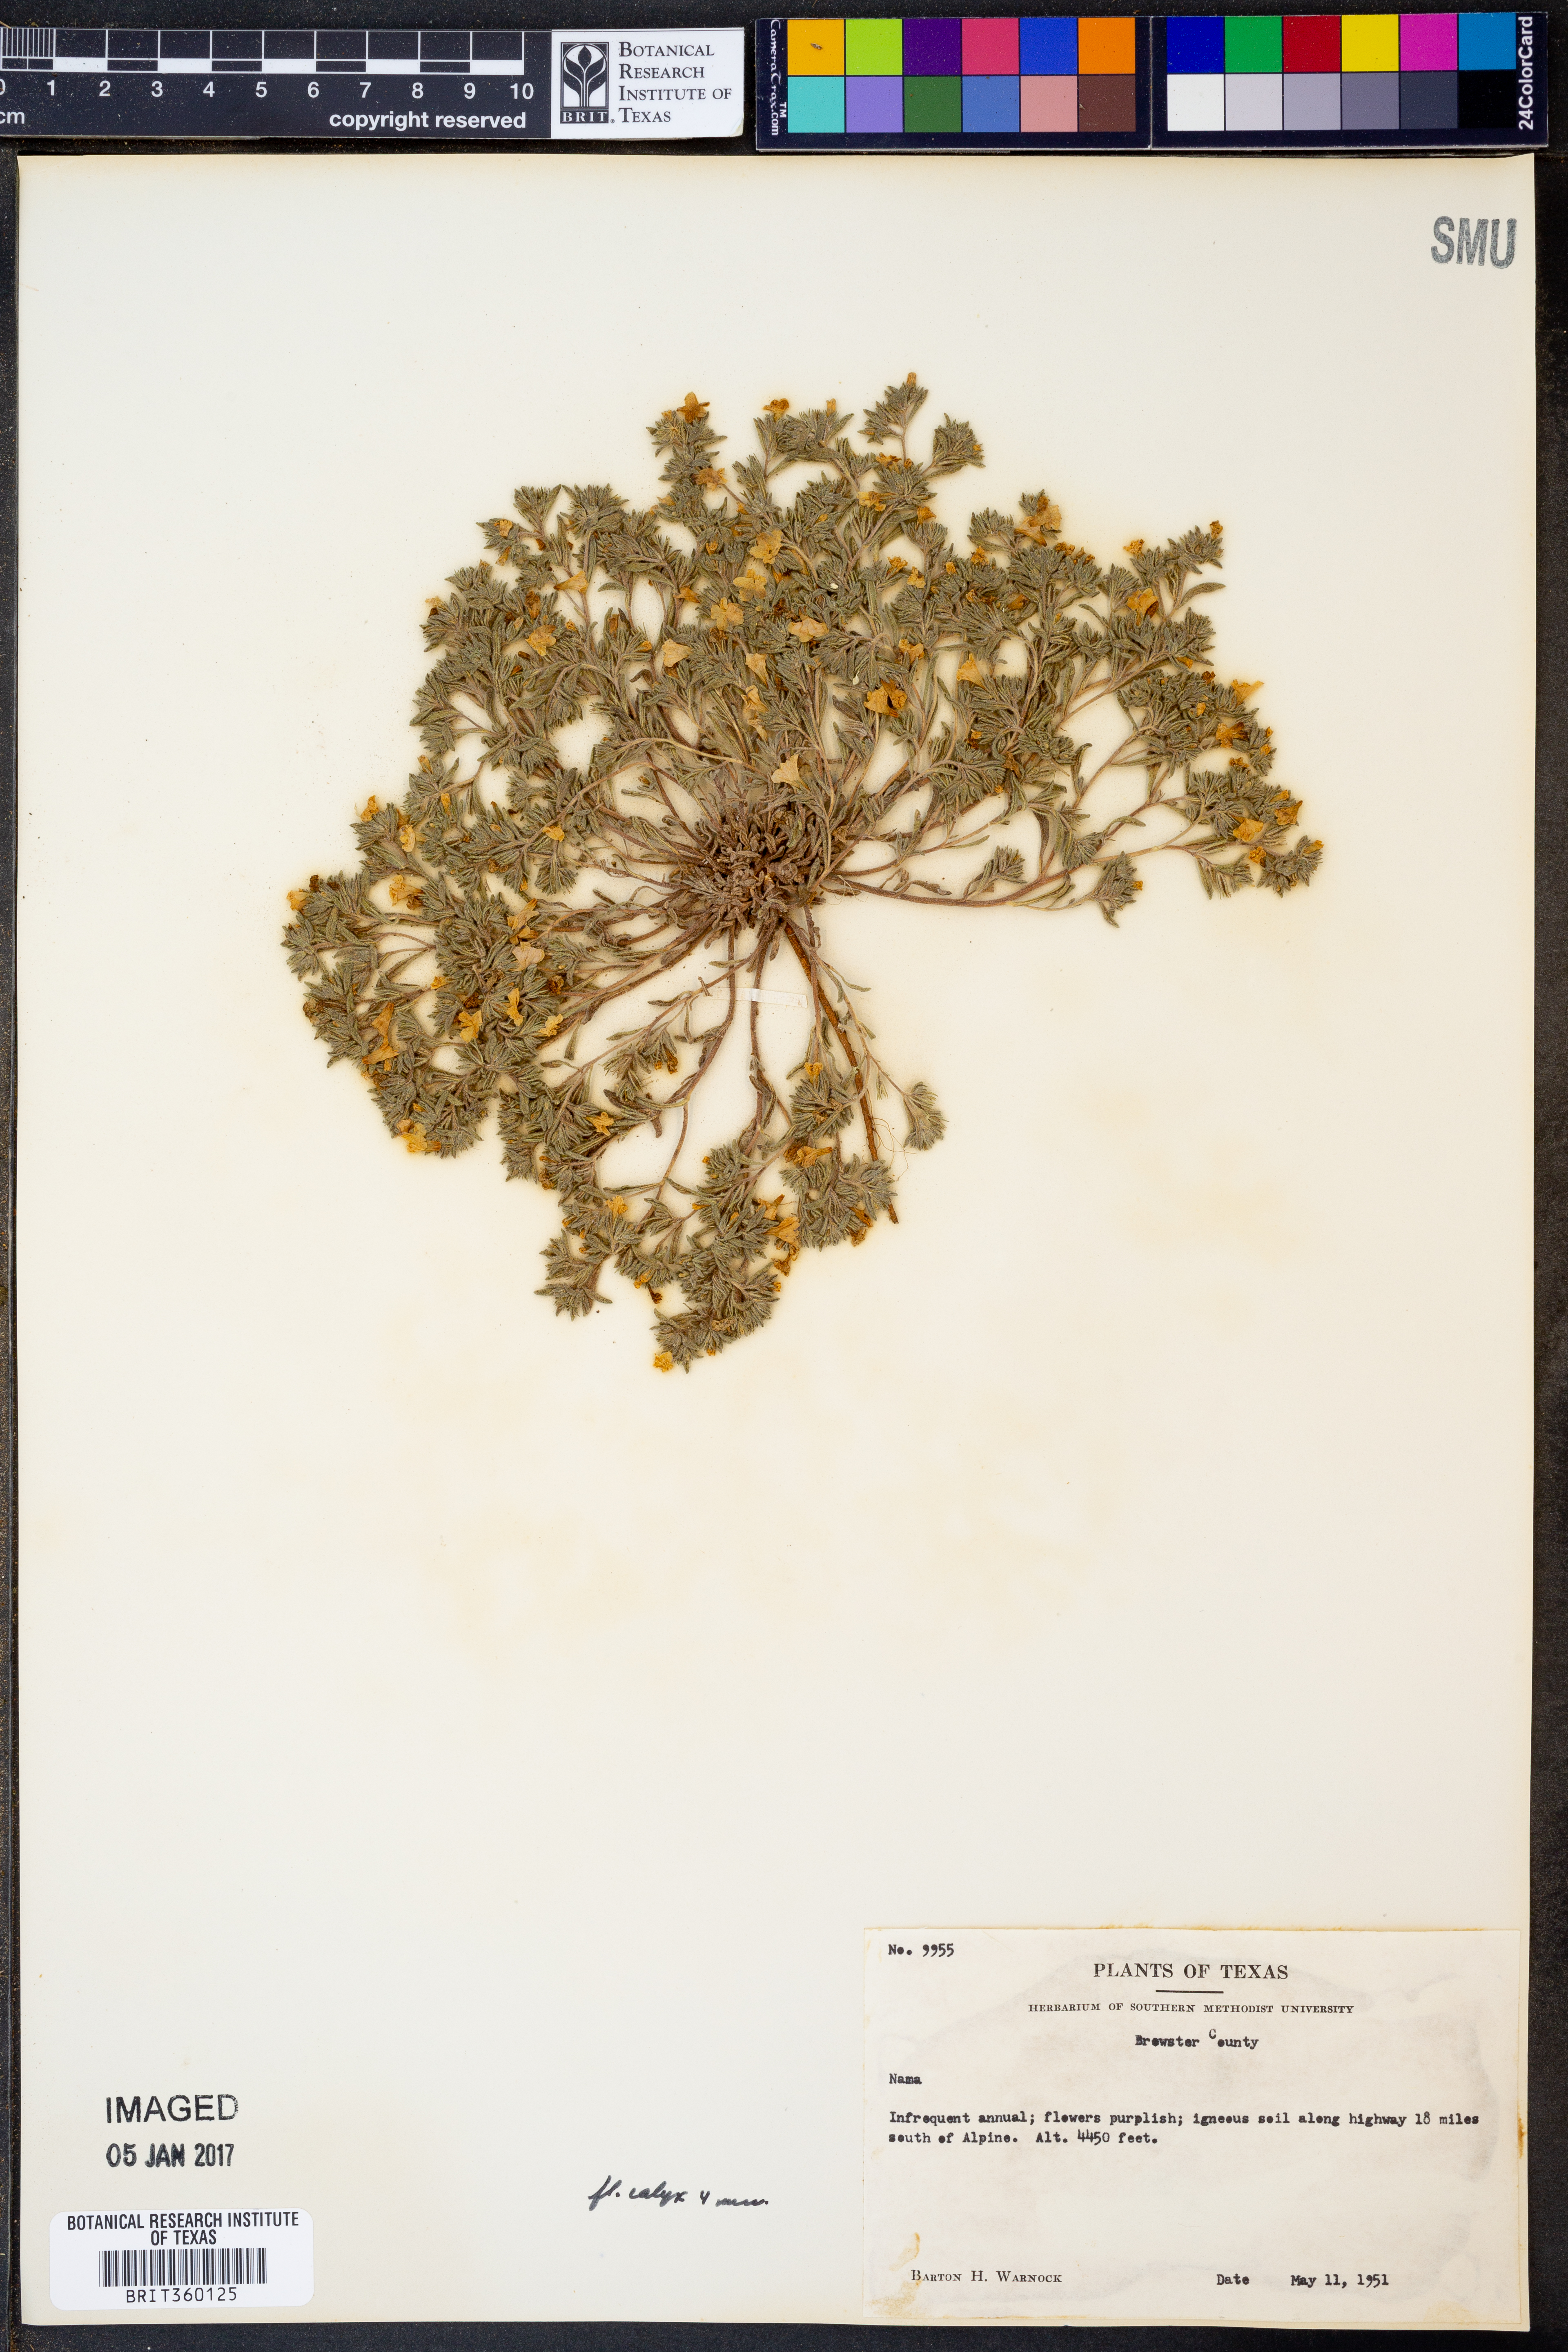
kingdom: Plantae
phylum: Tracheophyta
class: Magnoliopsida
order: Boraginales
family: Namaceae
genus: Nama
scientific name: Nama
